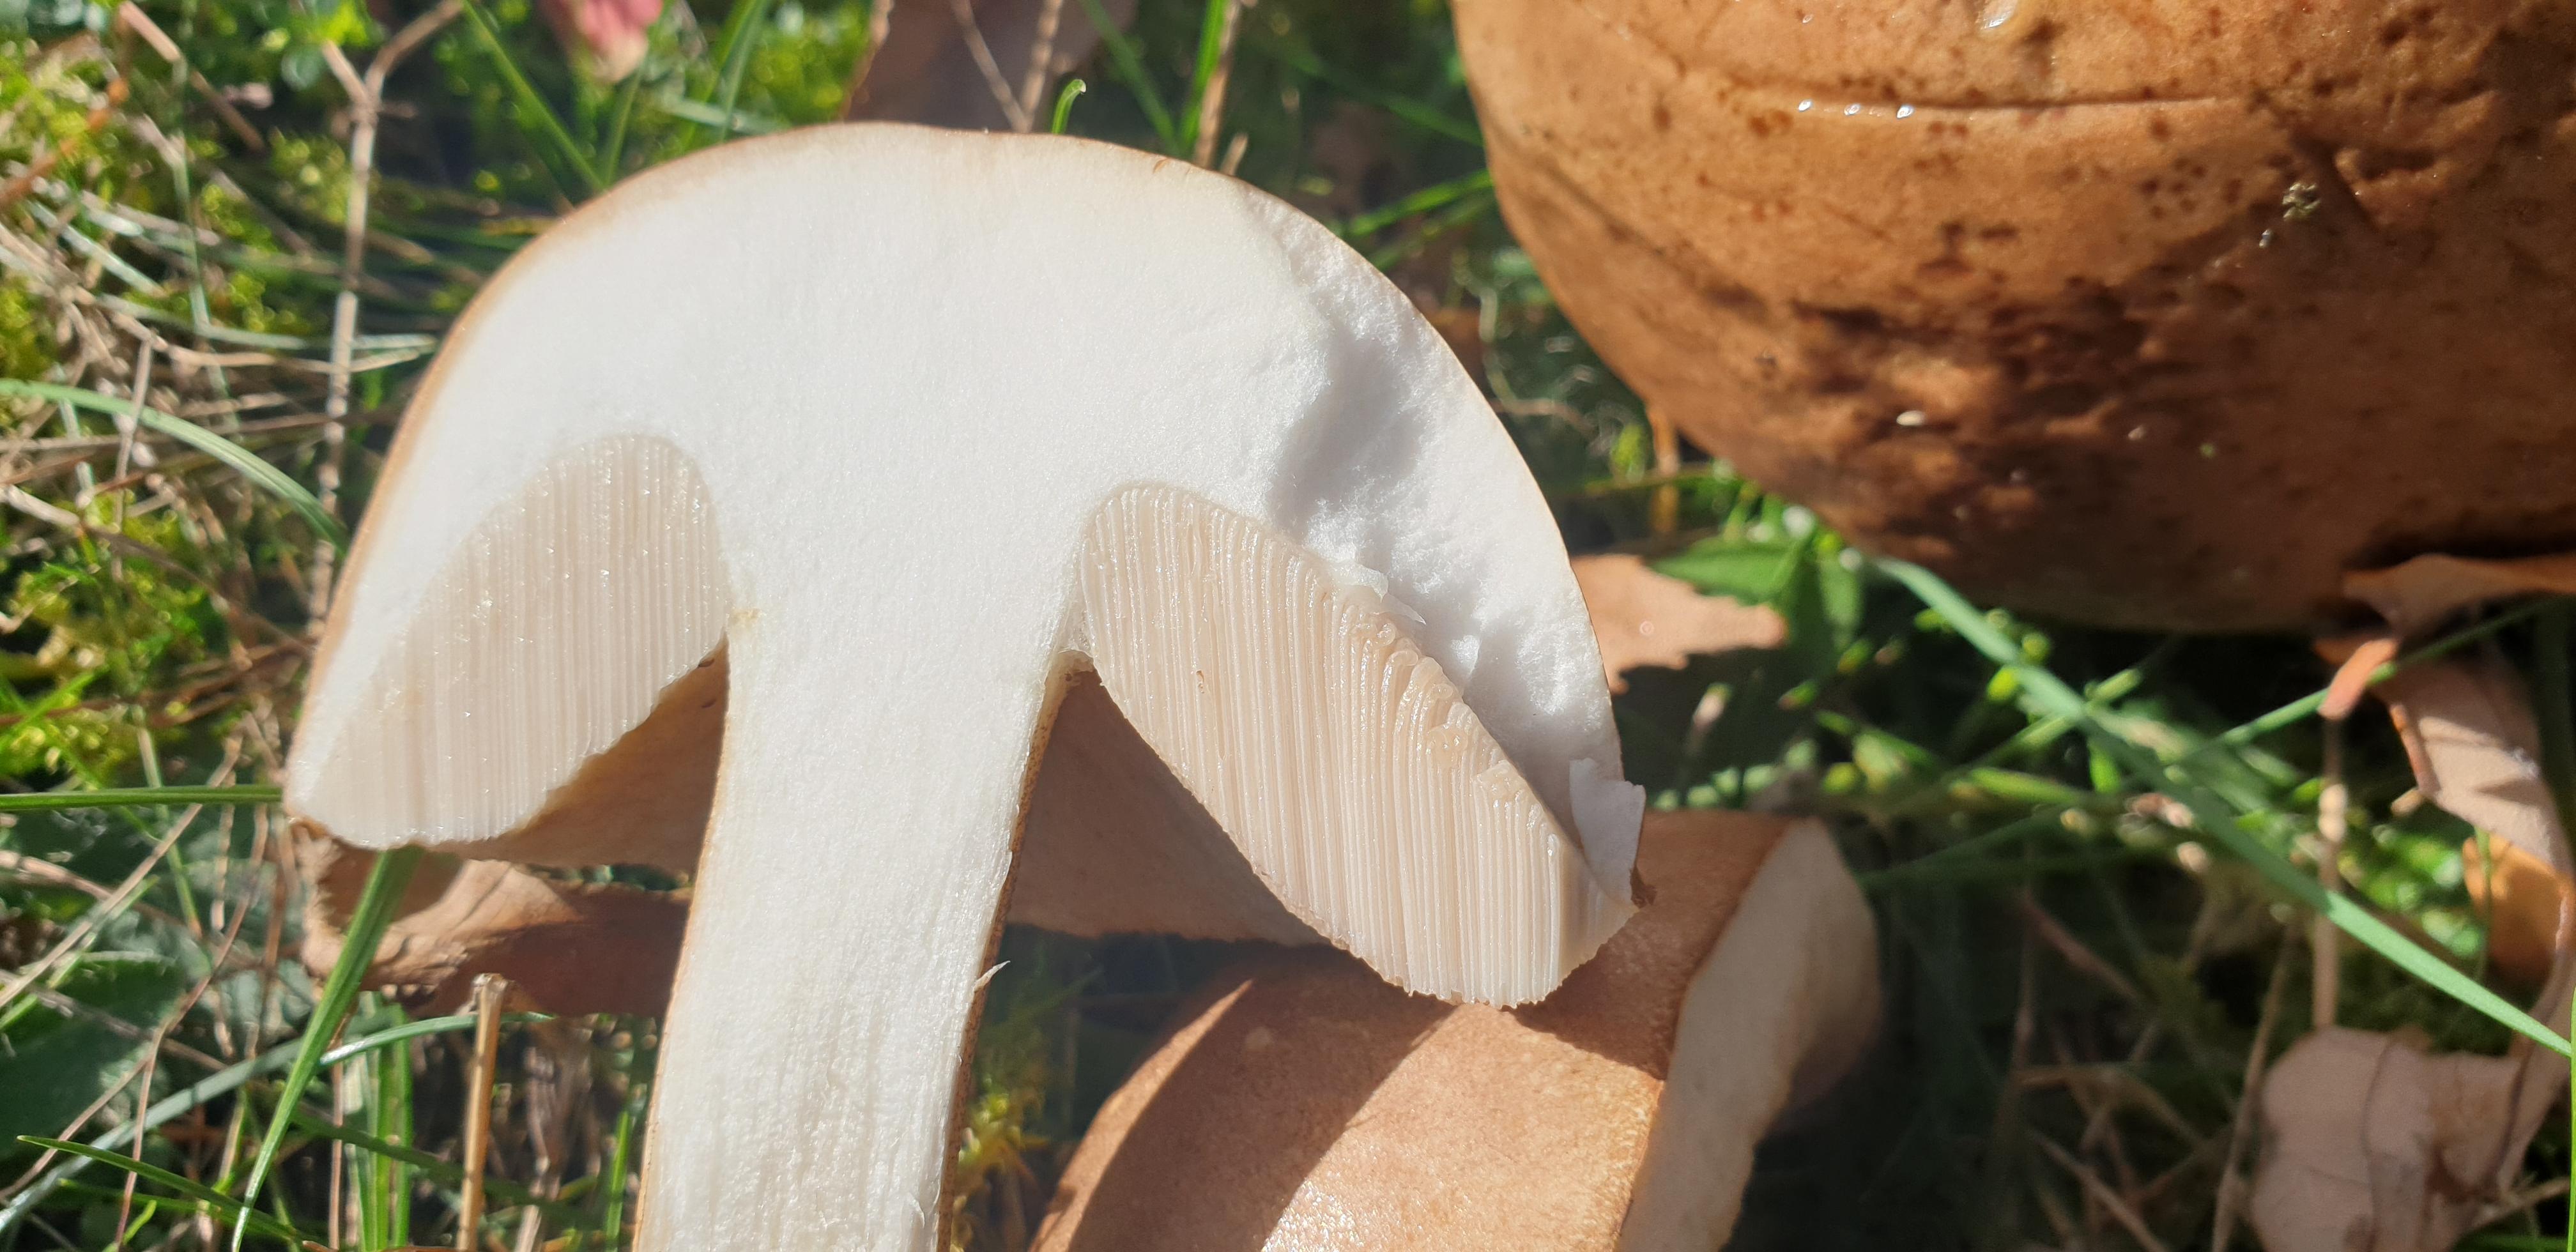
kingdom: Fungi
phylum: Basidiomycota
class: Agaricomycetes
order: Boletales
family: Boletaceae
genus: Leccinum
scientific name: Leccinum scabrum
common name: brun skælrørhat
